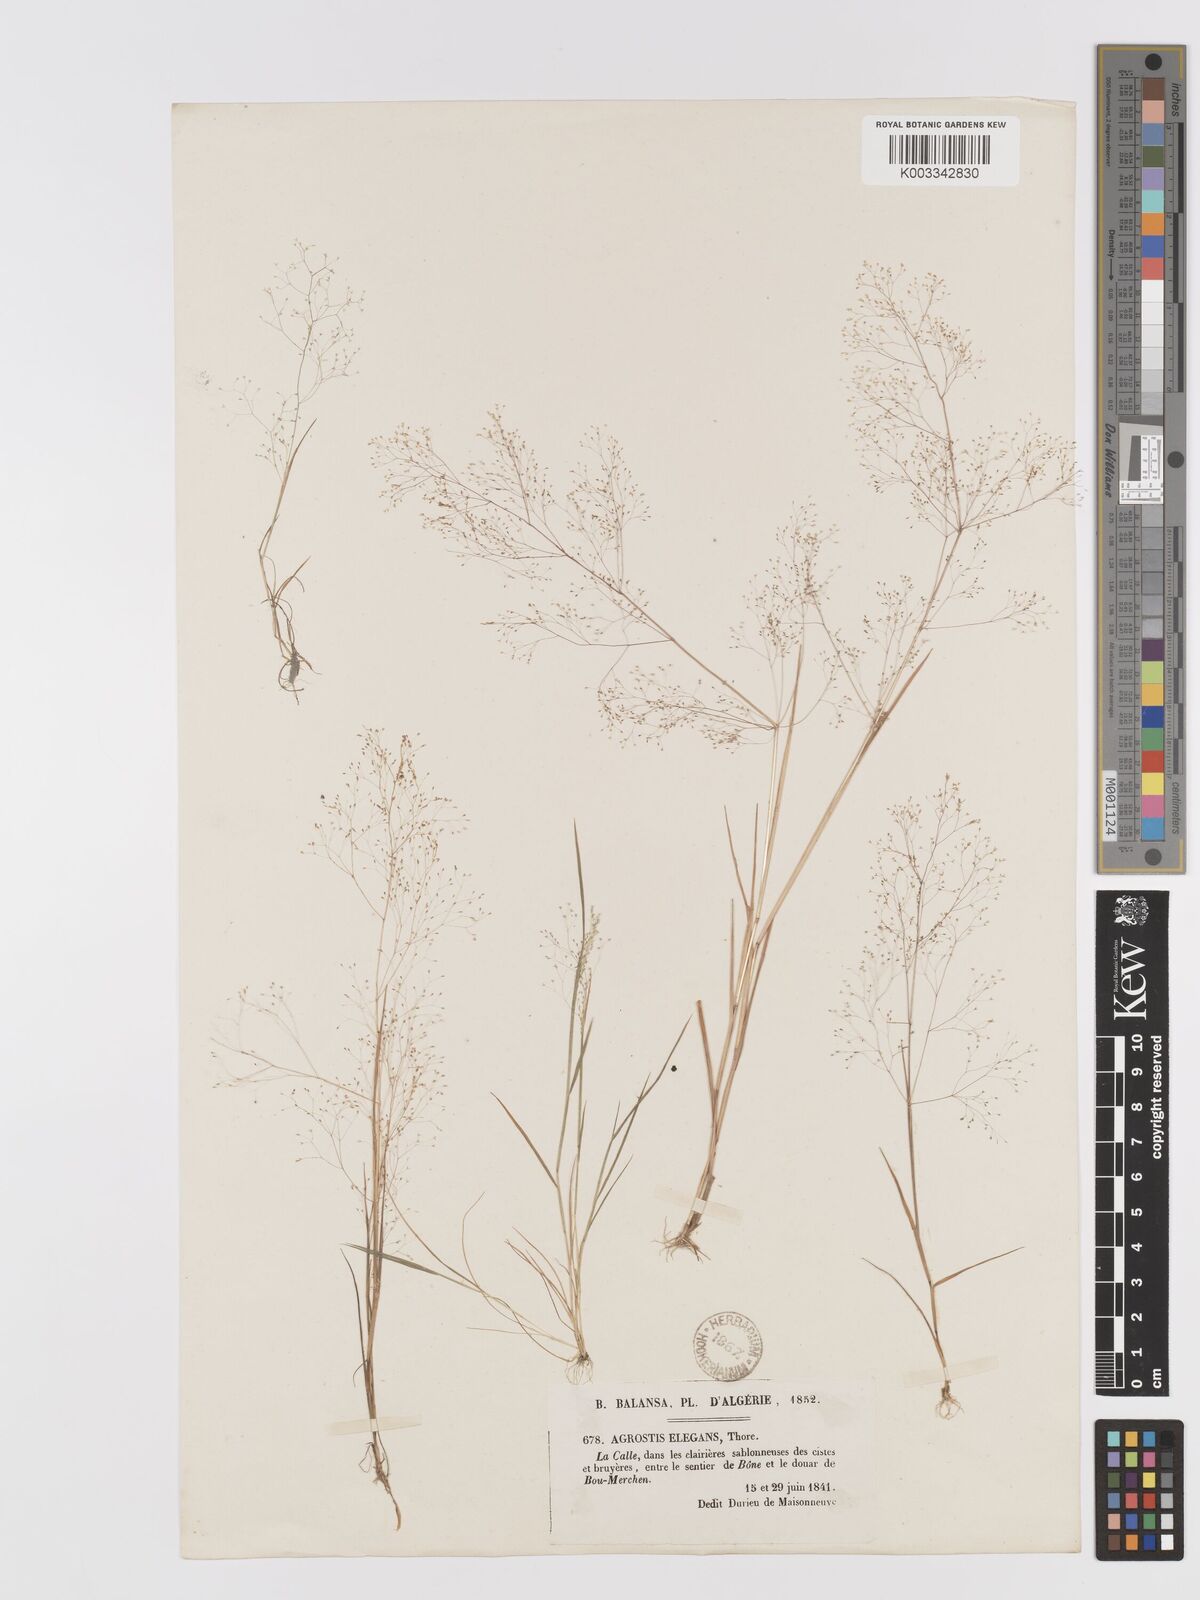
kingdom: Plantae
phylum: Tracheophyta
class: Liliopsida
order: Poales
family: Poaceae
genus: Agrostis
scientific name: Agrostis tenerrima
